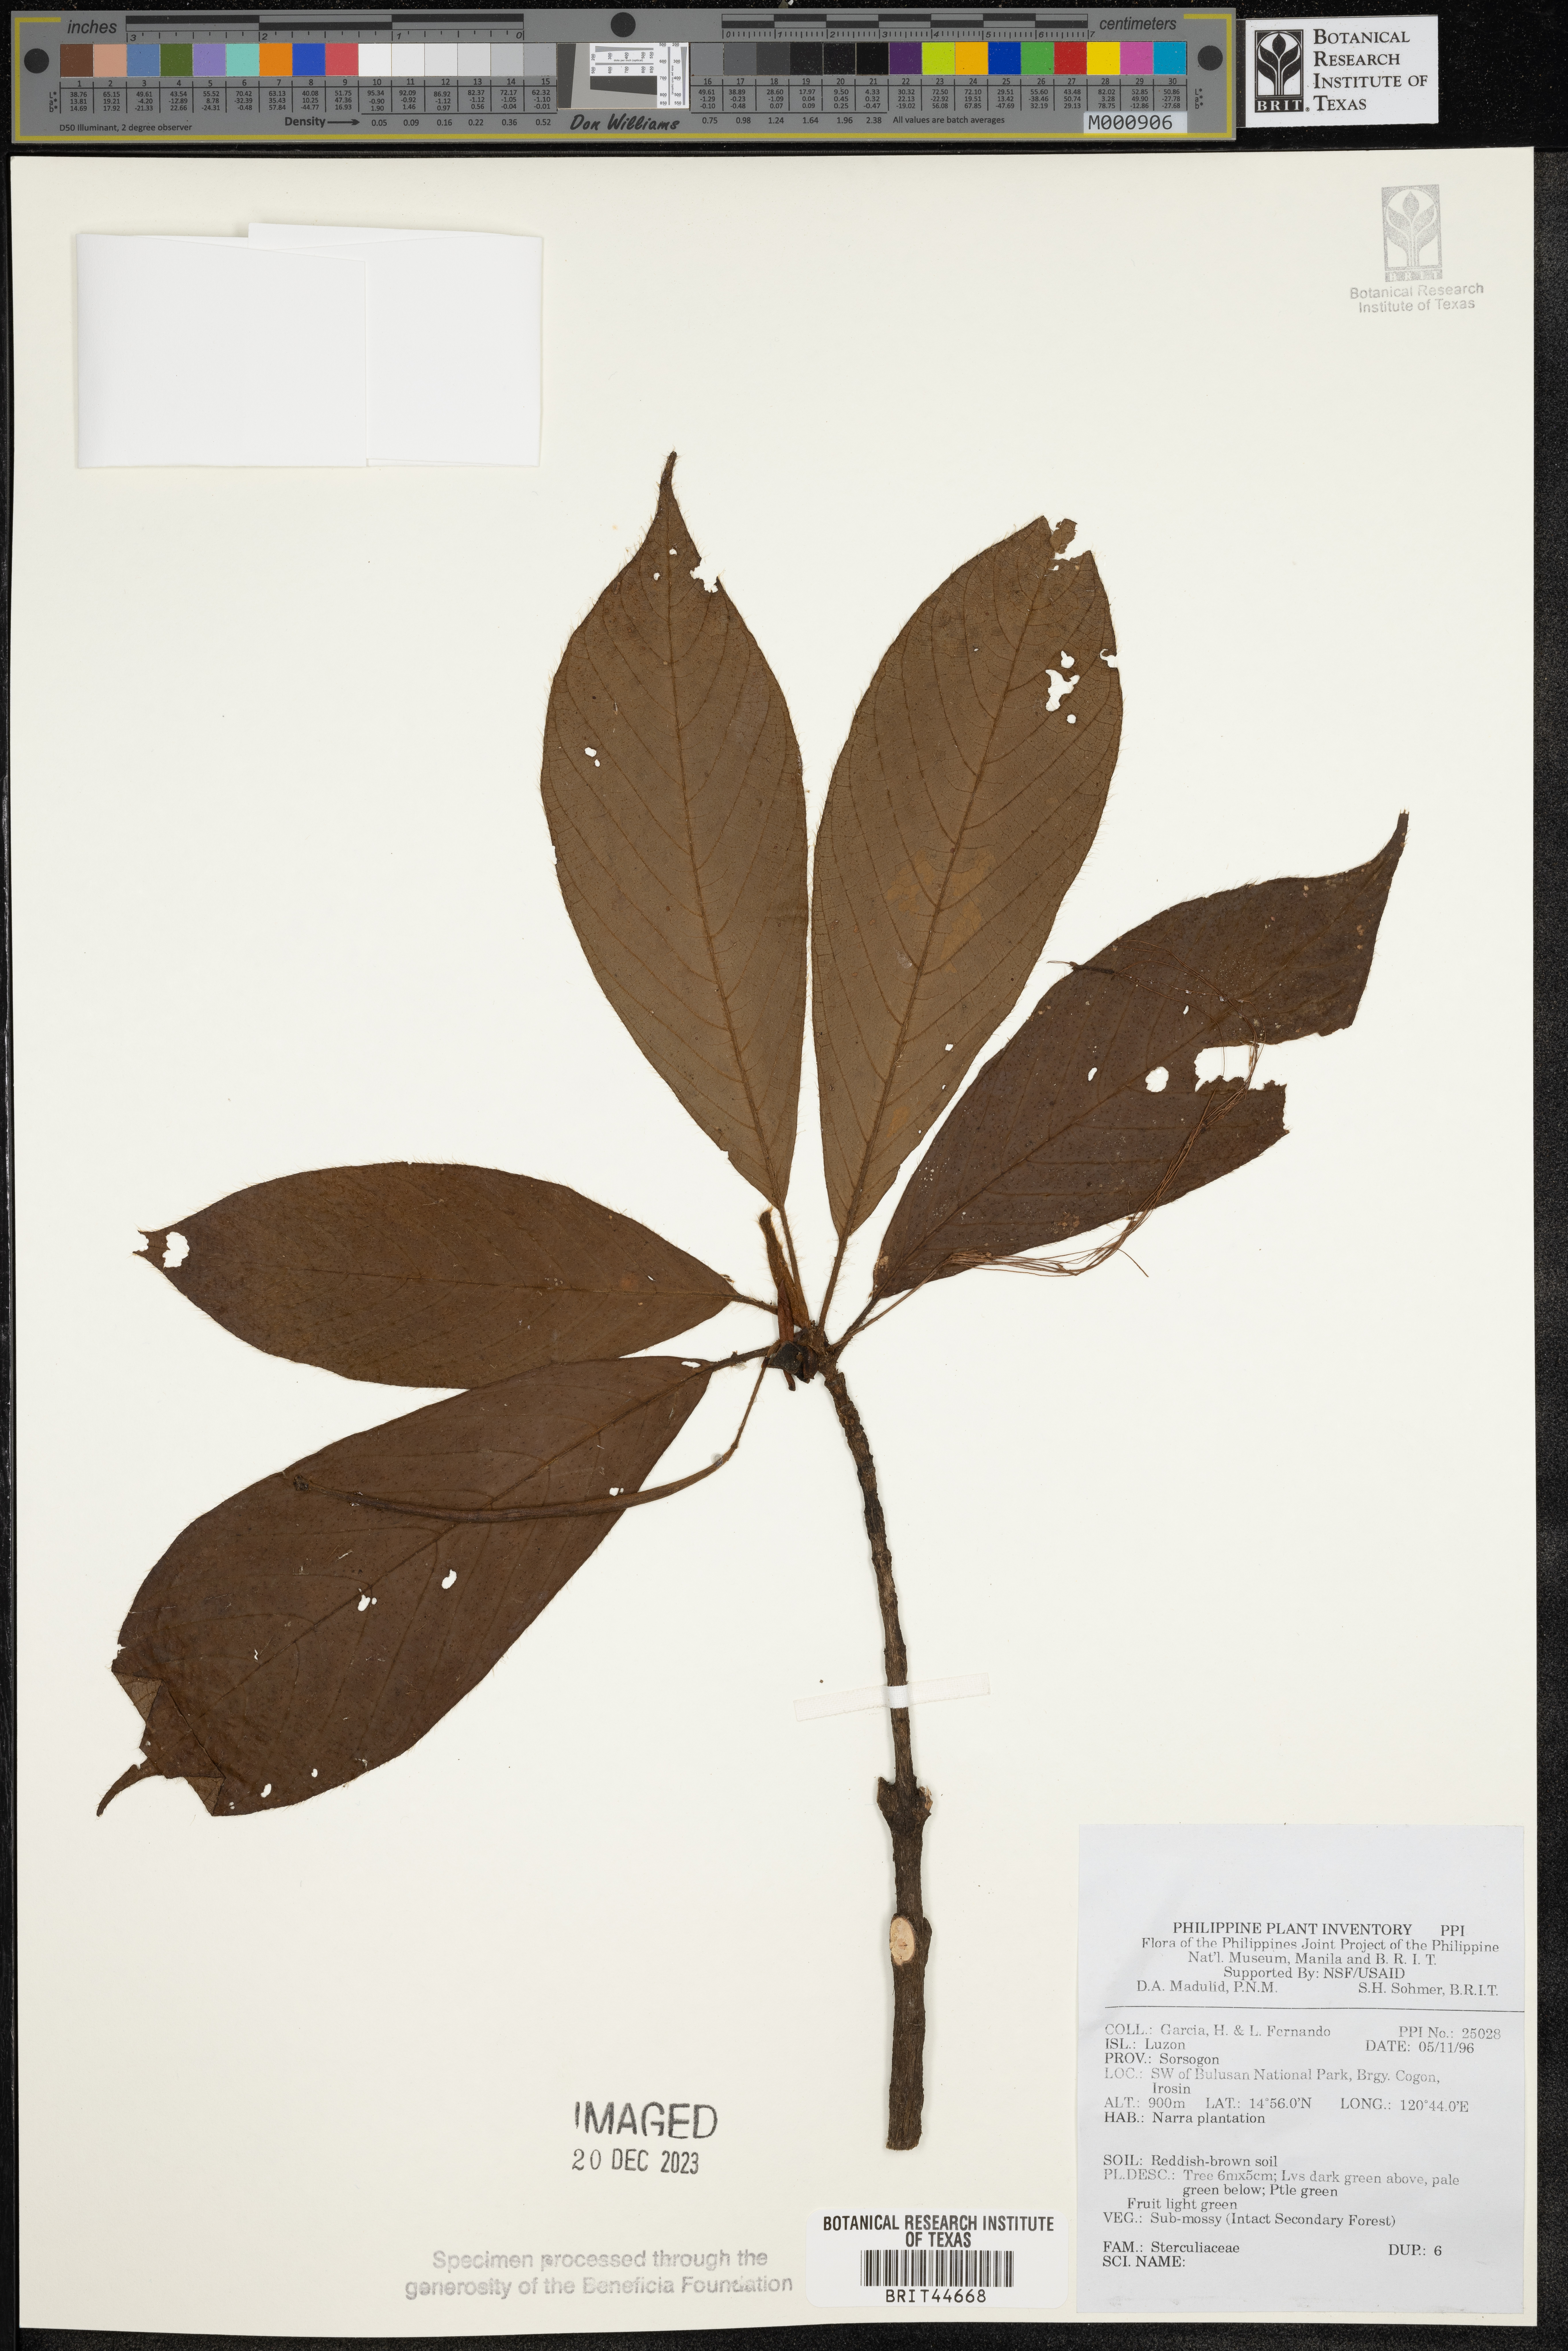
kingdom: Plantae
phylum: Tracheophyta
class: Magnoliopsida
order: Malvales
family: Sterculiaceae
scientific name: Sterculiaceae
